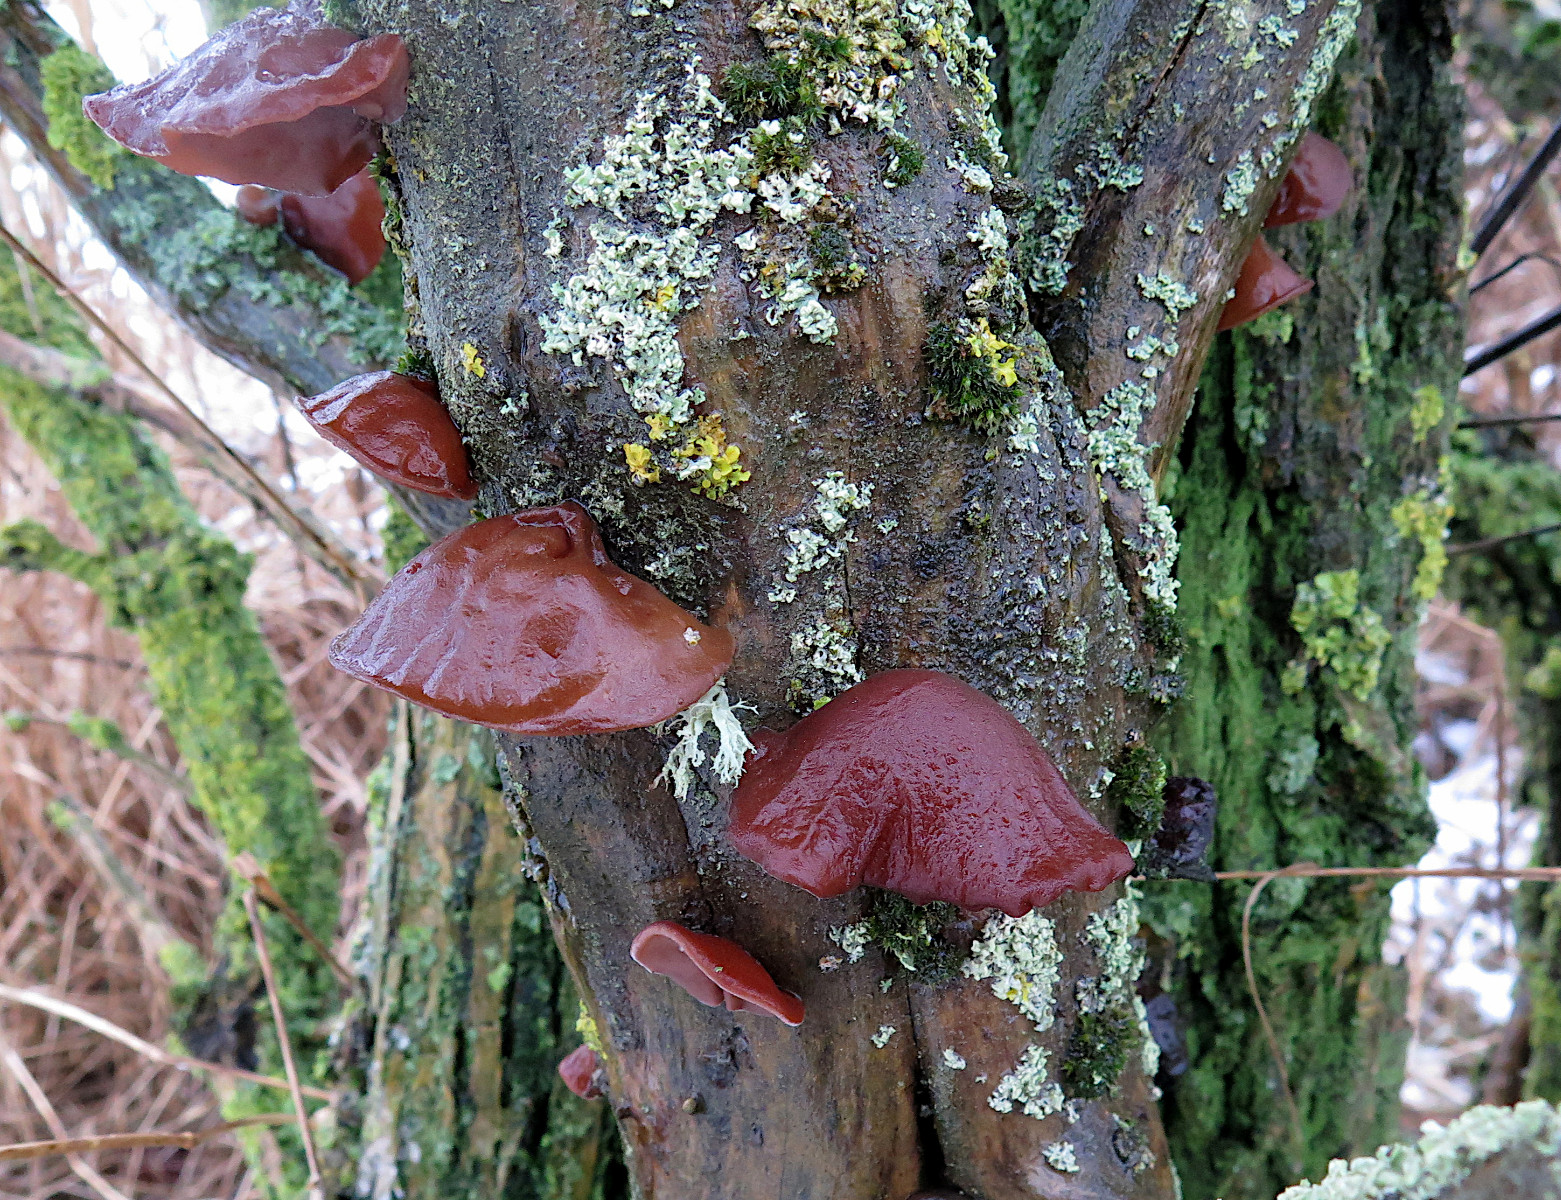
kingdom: Fungi
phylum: Basidiomycota
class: Agaricomycetes
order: Auriculariales
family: Auriculariaceae
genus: Auricularia
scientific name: Auricularia auricula-judae
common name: almindelig judasøre
